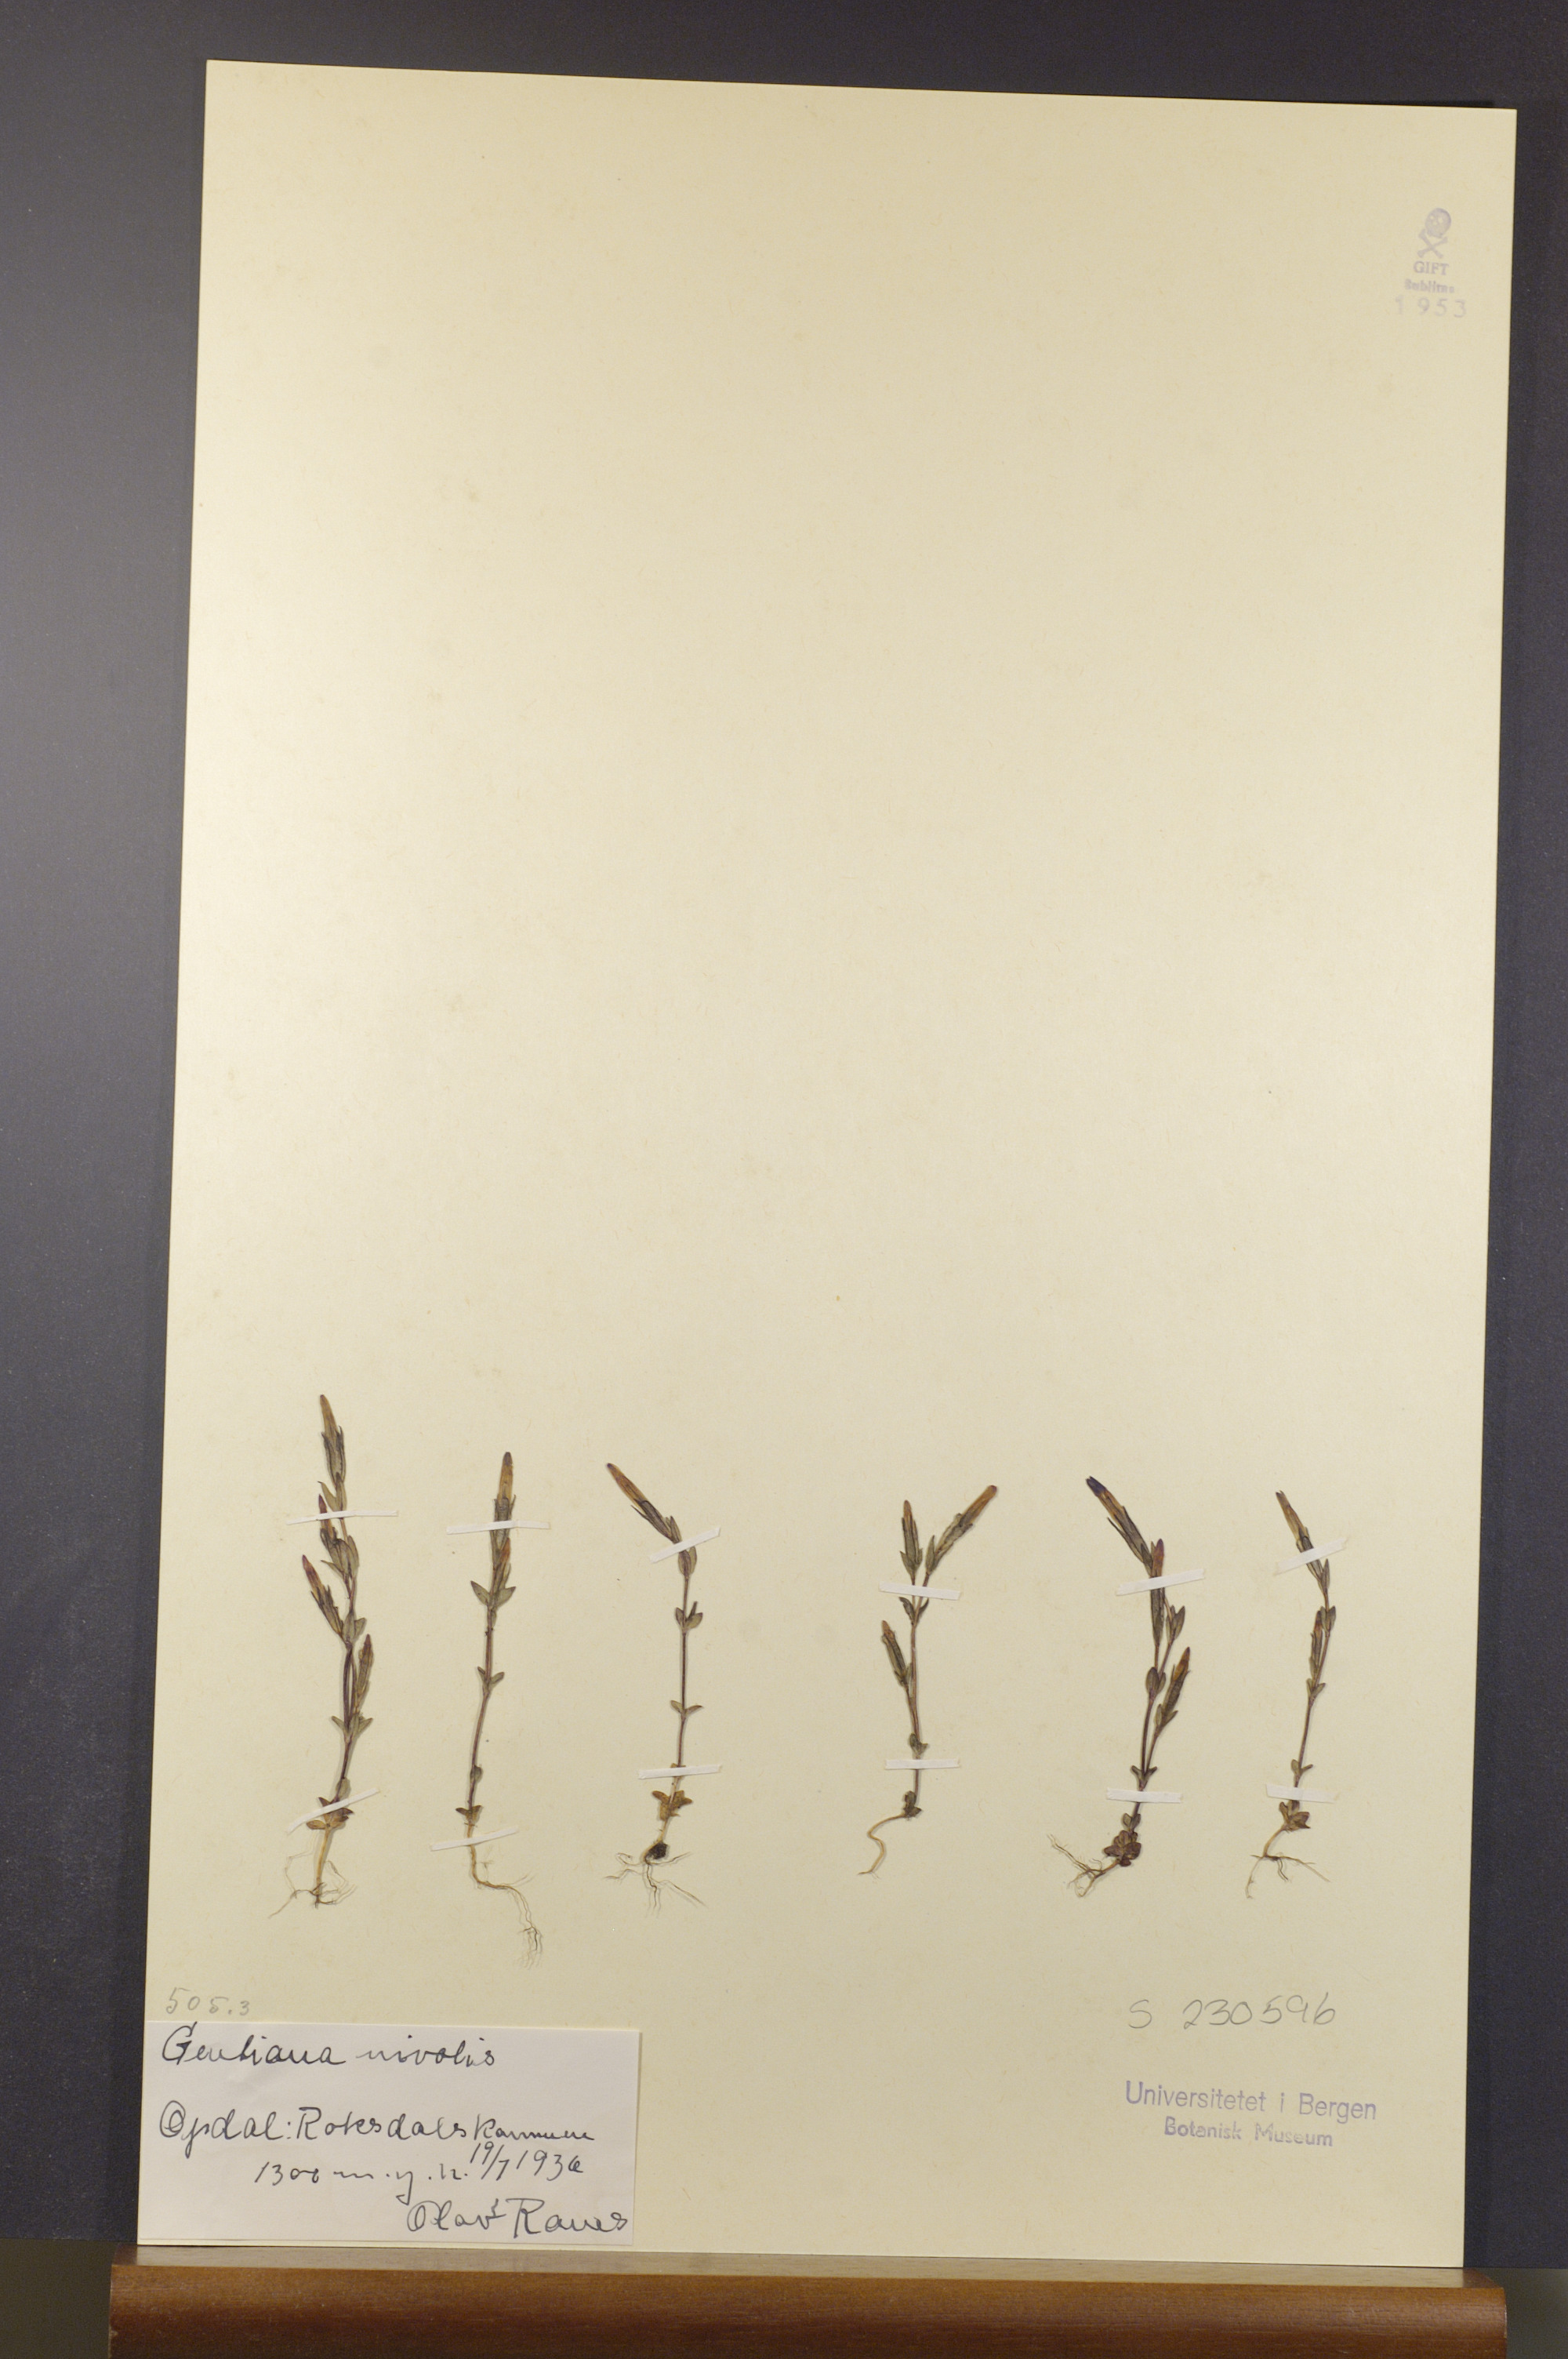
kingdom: Plantae
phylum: Tracheophyta
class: Magnoliopsida
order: Gentianales
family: Gentianaceae
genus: Gentiana
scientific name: Gentiana nivalis
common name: Alpine gentian
